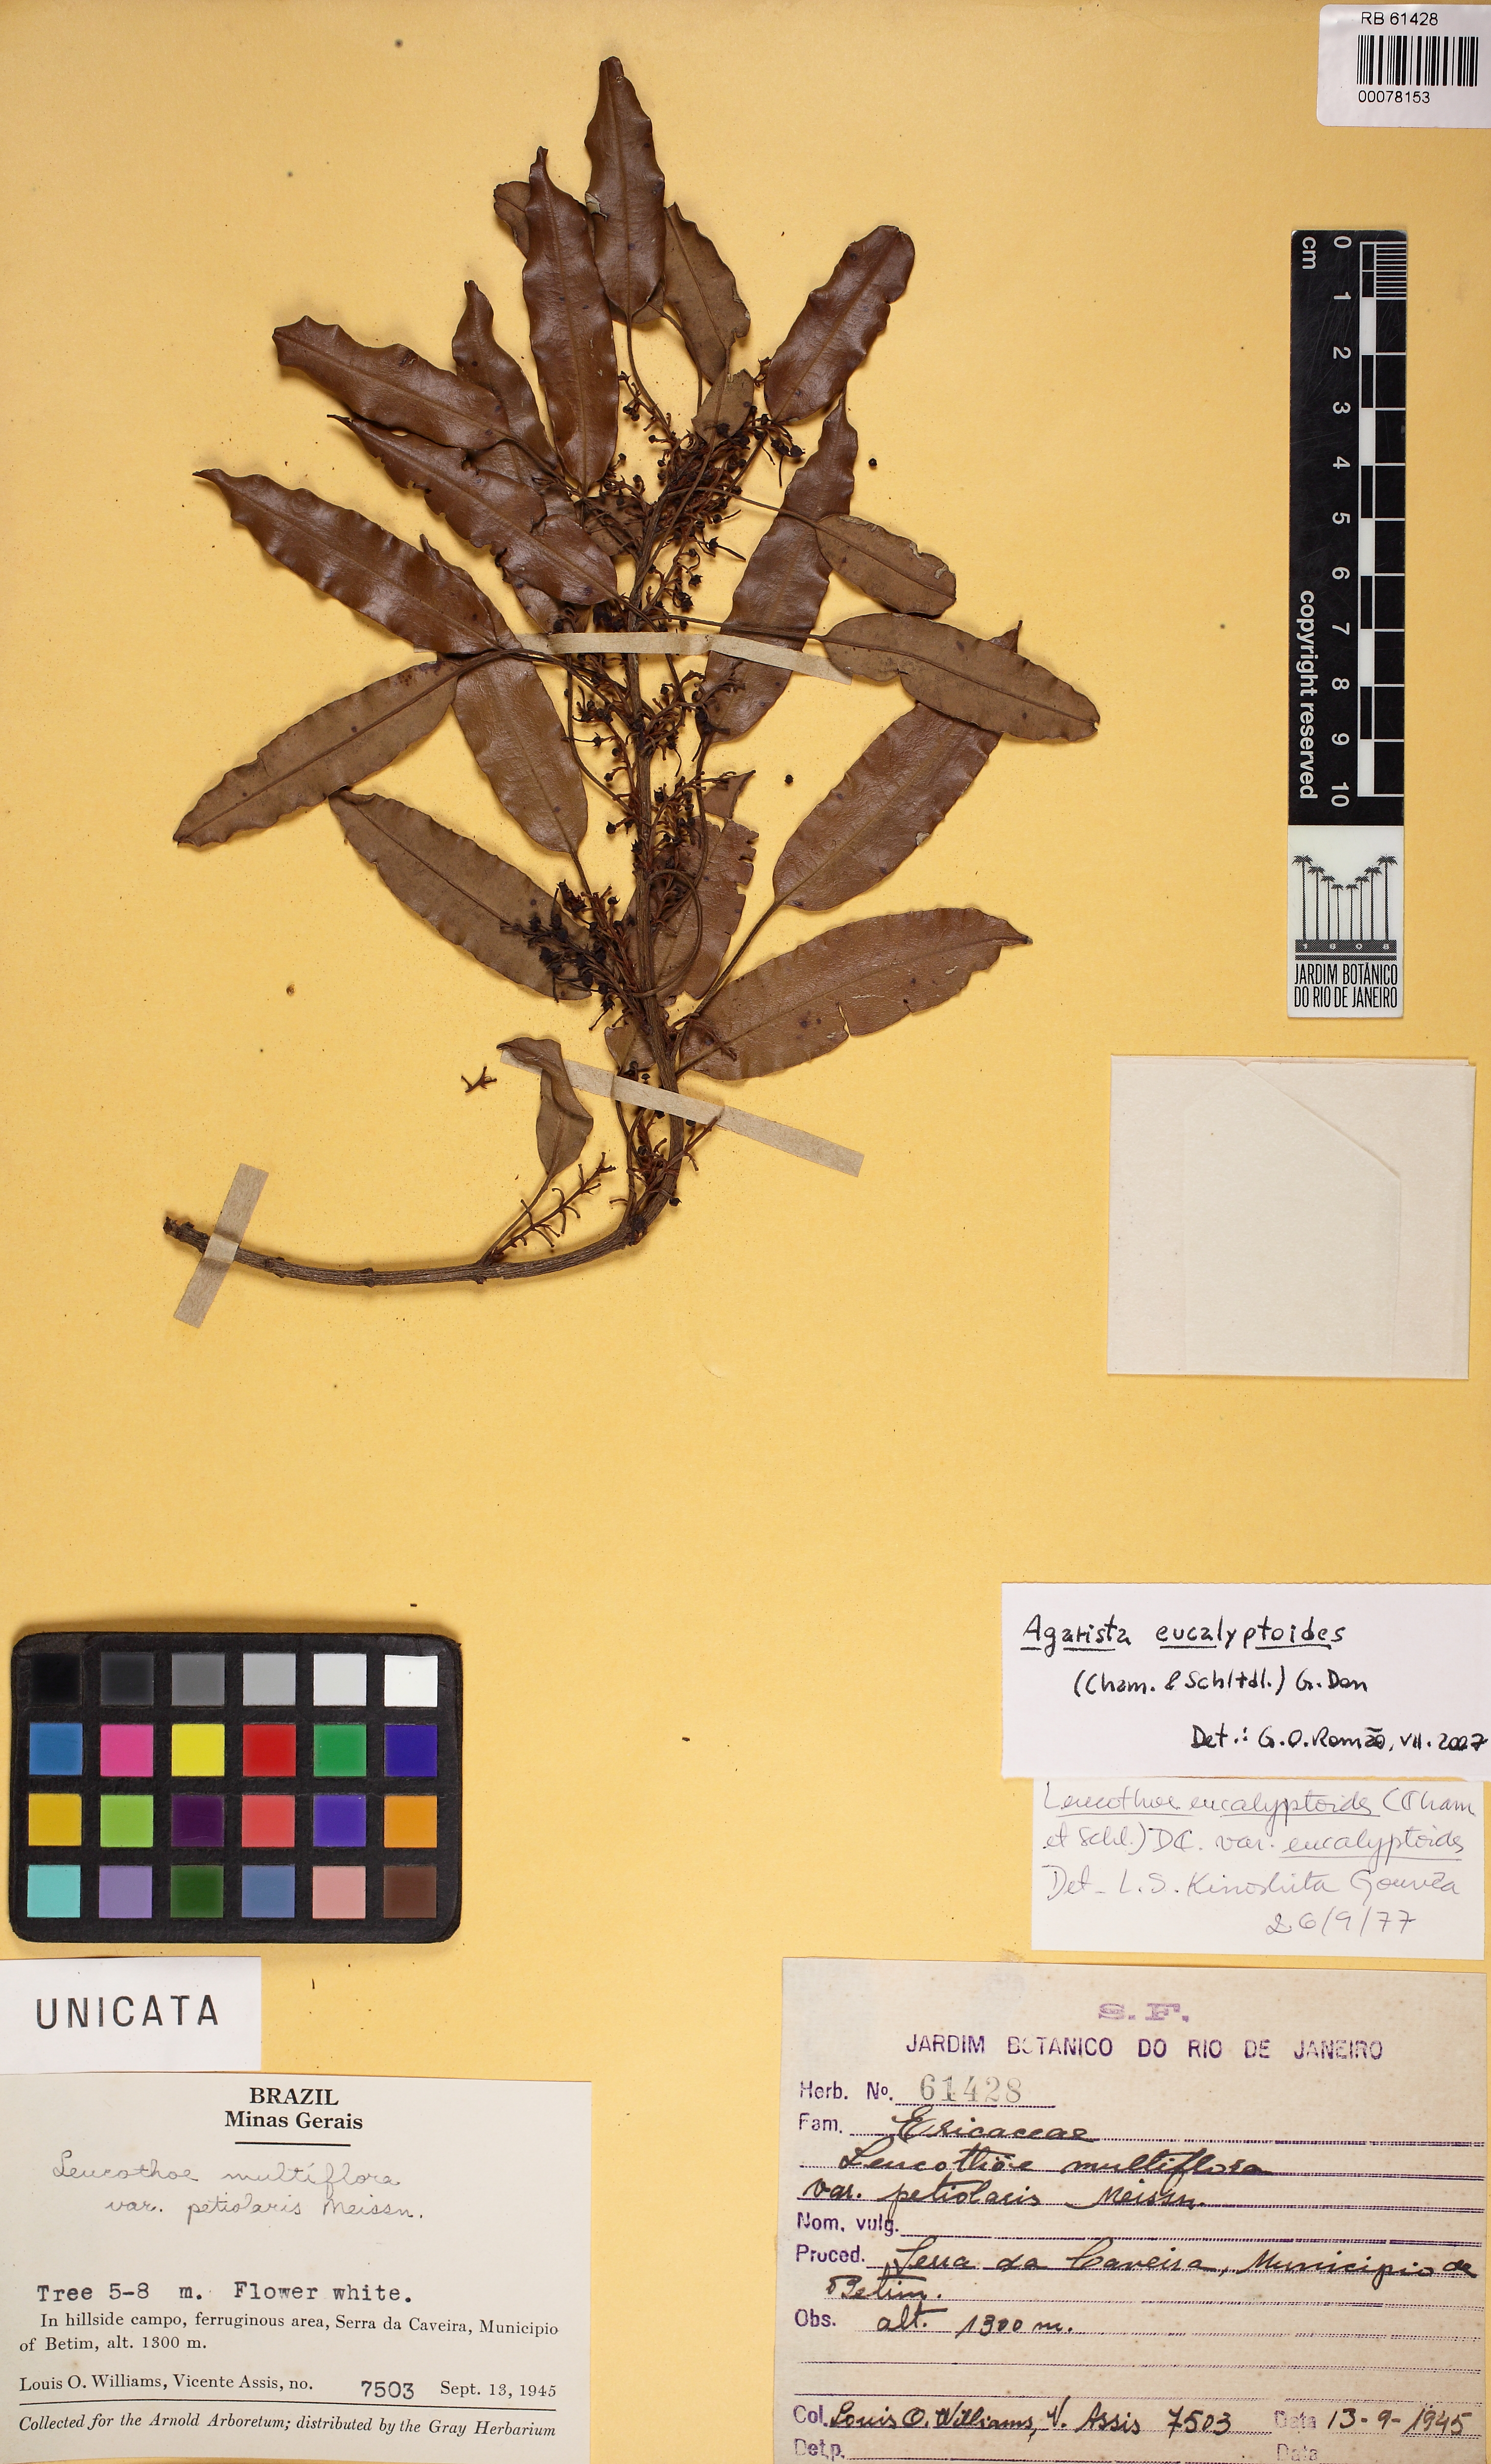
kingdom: Plantae
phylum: Tracheophyta
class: Magnoliopsida
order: Ericales
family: Ericaceae
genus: Agarista
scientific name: Agarista eucalyptoides
